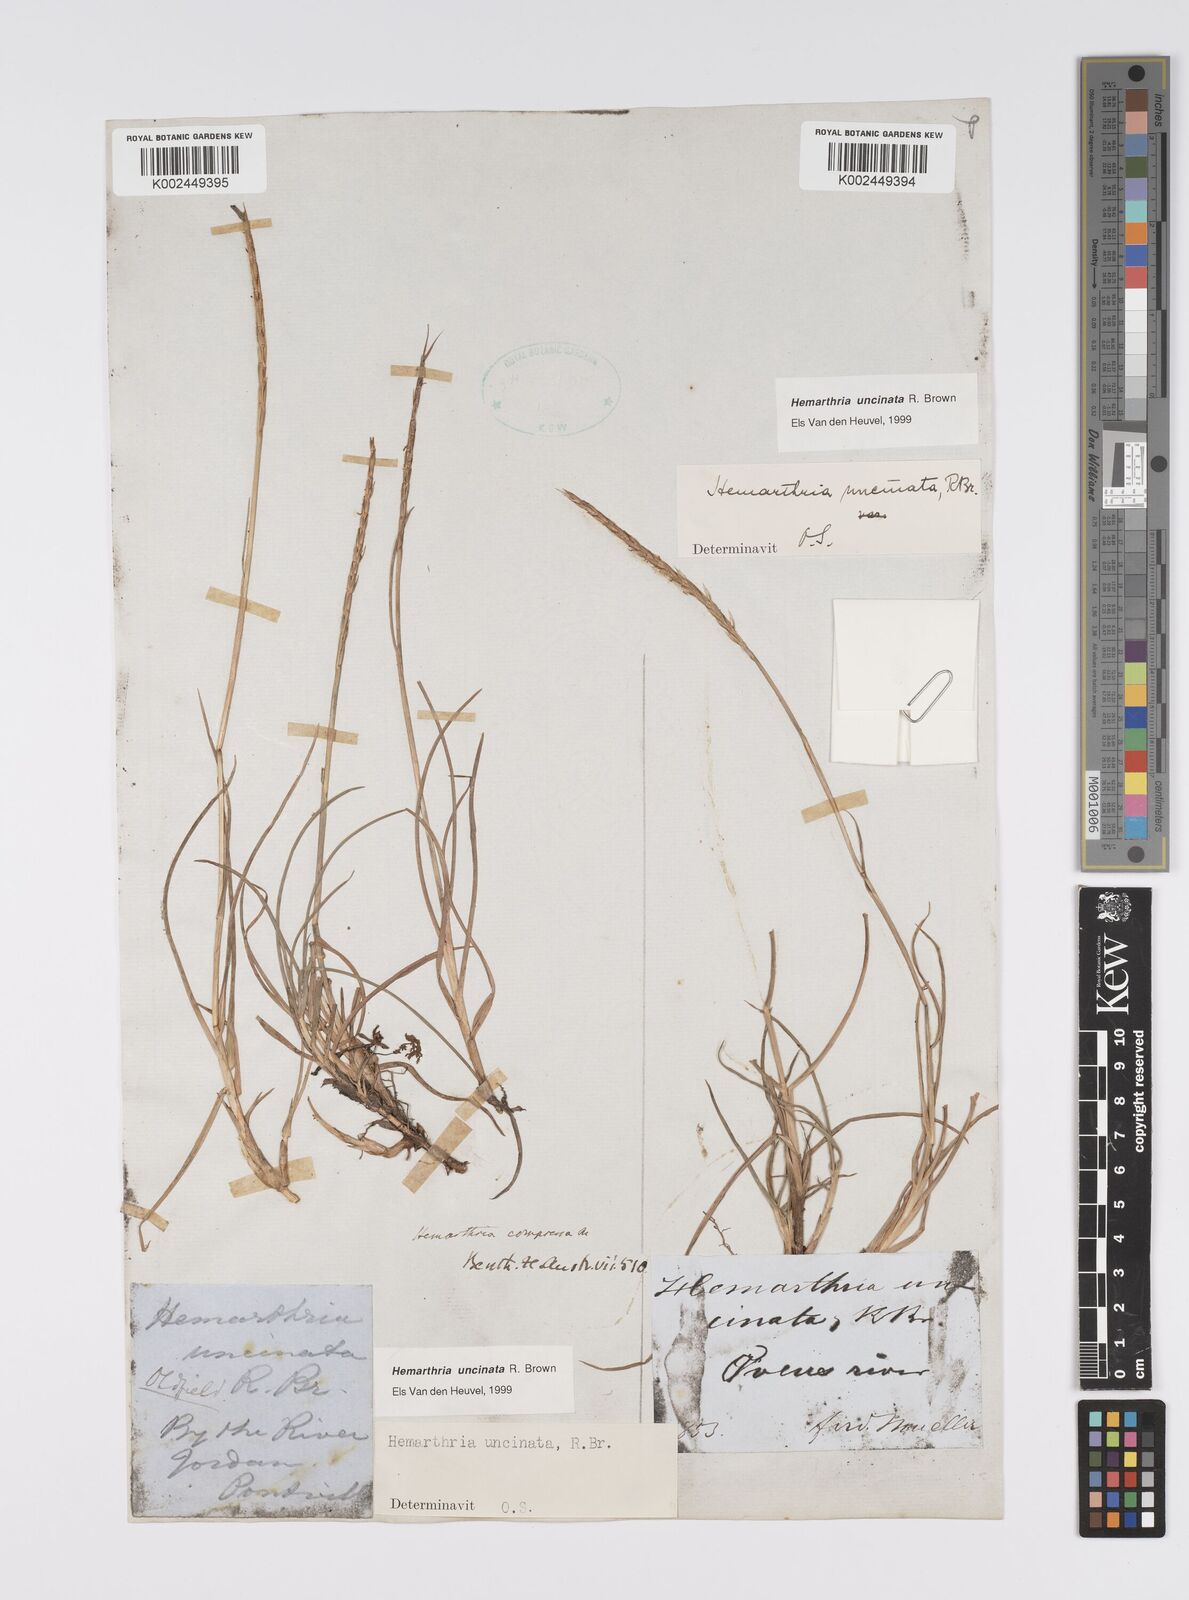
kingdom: Plantae
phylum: Tracheophyta
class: Liliopsida
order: Poales
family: Poaceae
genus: Hemarthria
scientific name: Hemarthria uncinata
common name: Matgrass
